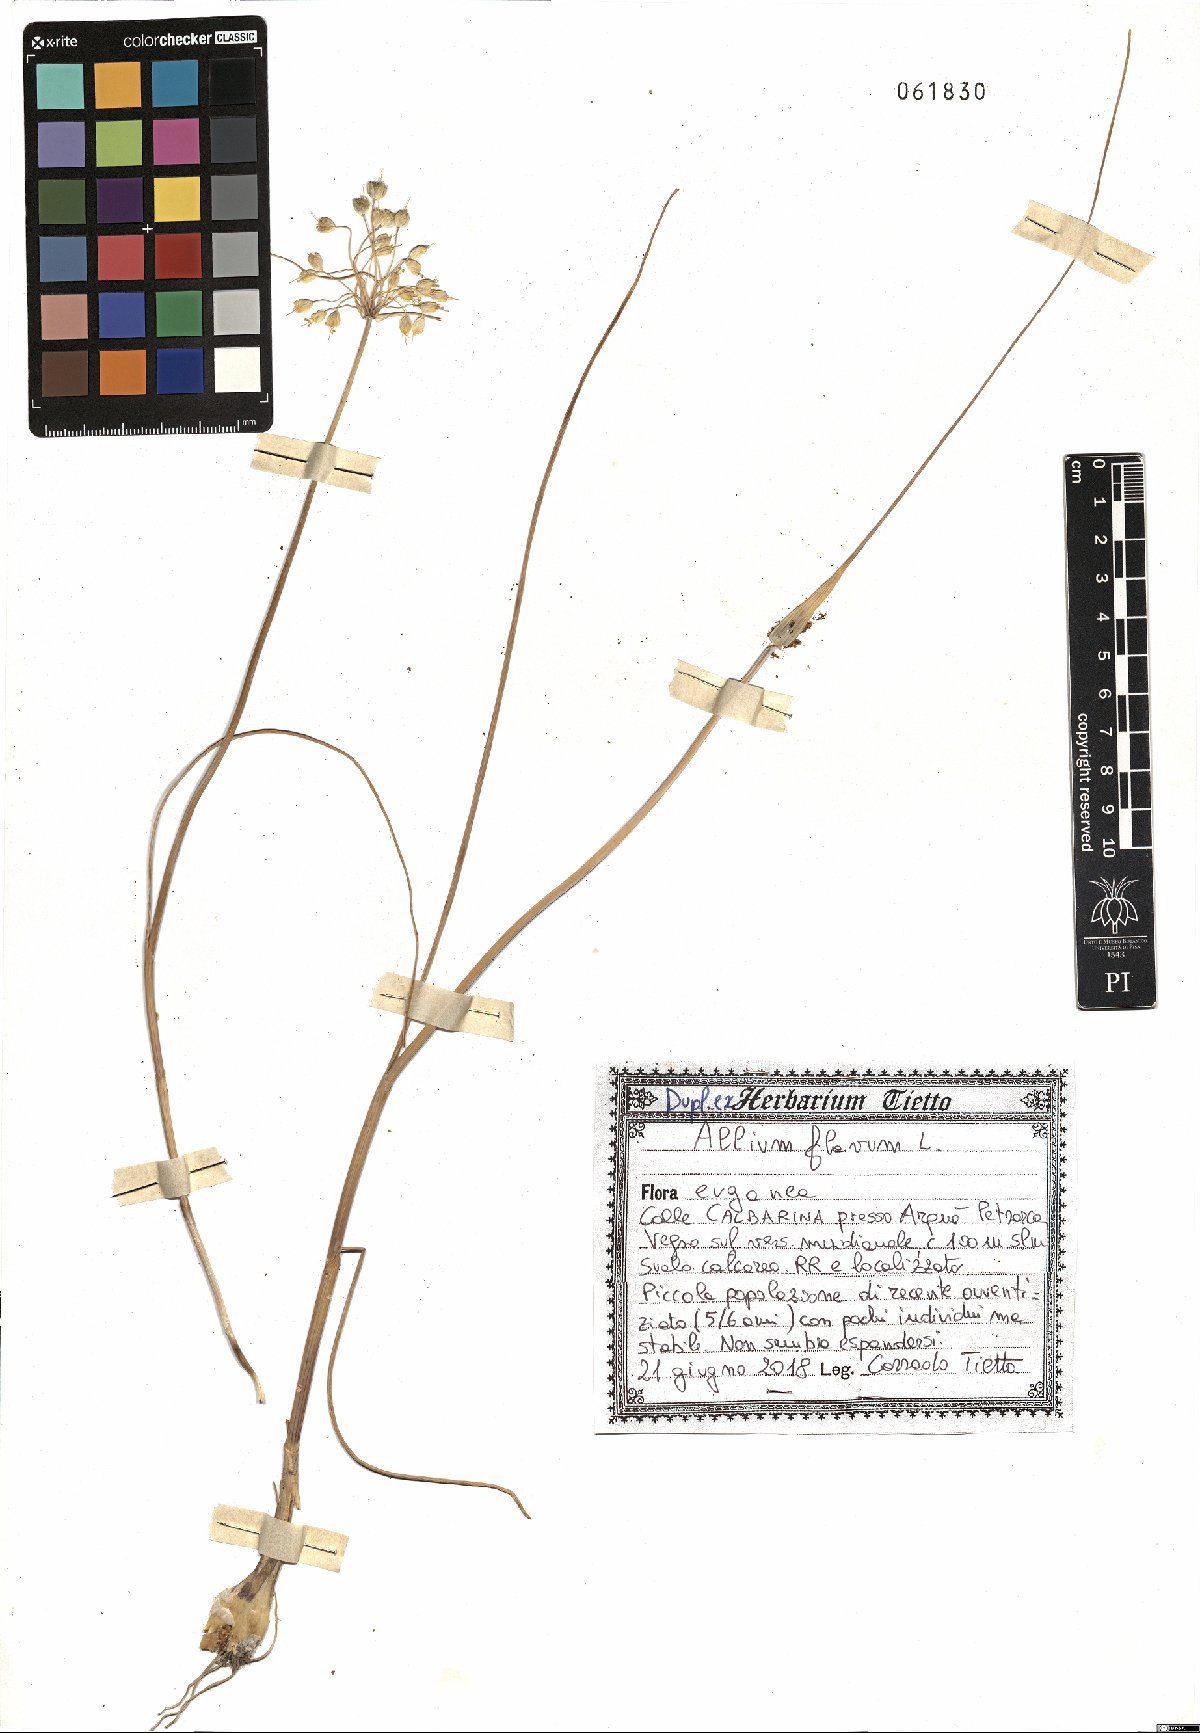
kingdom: Plantae
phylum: Tracheophyta
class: Liliopsida
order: Asparagales
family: Amaryllidaceae
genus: Allium
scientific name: Allium flavum
